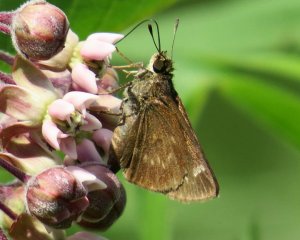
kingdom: Animalia
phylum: Arthropoda
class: Insecta
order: Lepidoptera
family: Hesperiidae
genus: Polites
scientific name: Polites egeremet
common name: Northern Broken-Dash
